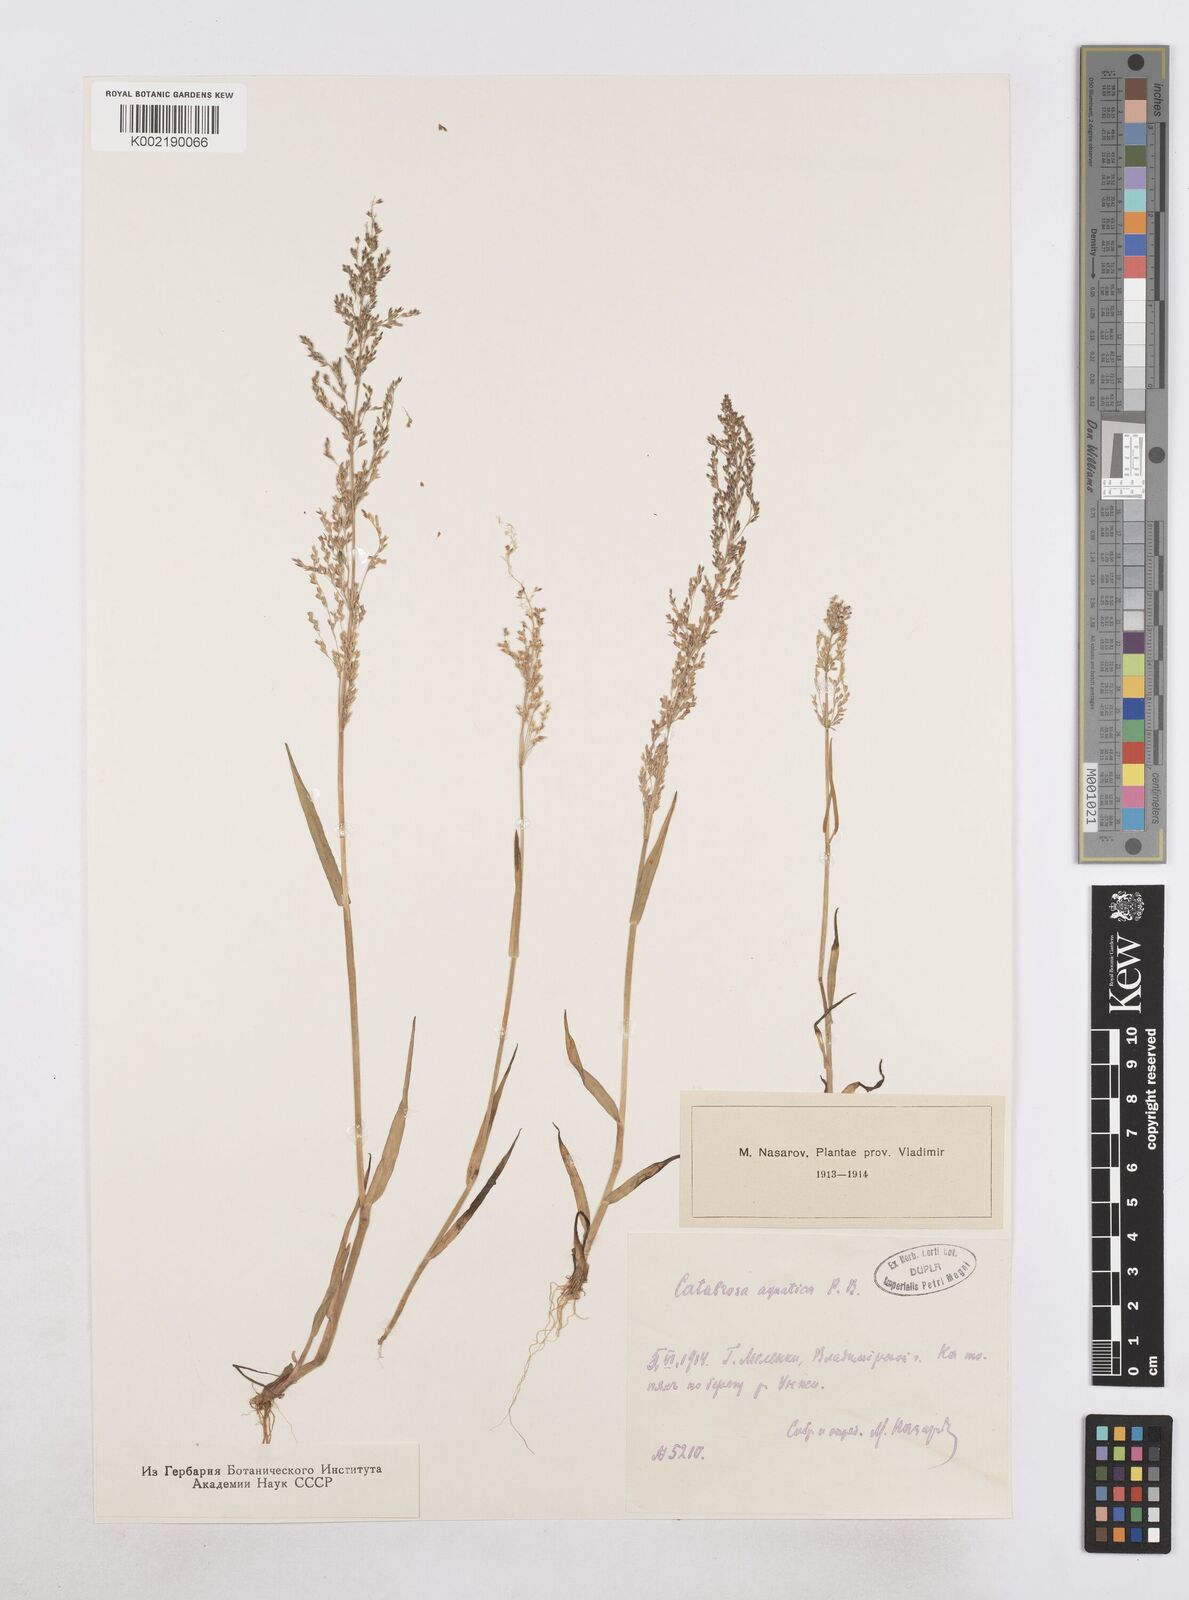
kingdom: Plantae
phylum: Tracheophyta
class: Liliopsida
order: Poales
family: Poaceae
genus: Catabrosa
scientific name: Catabrosa aquatica
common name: Whorl-grass
